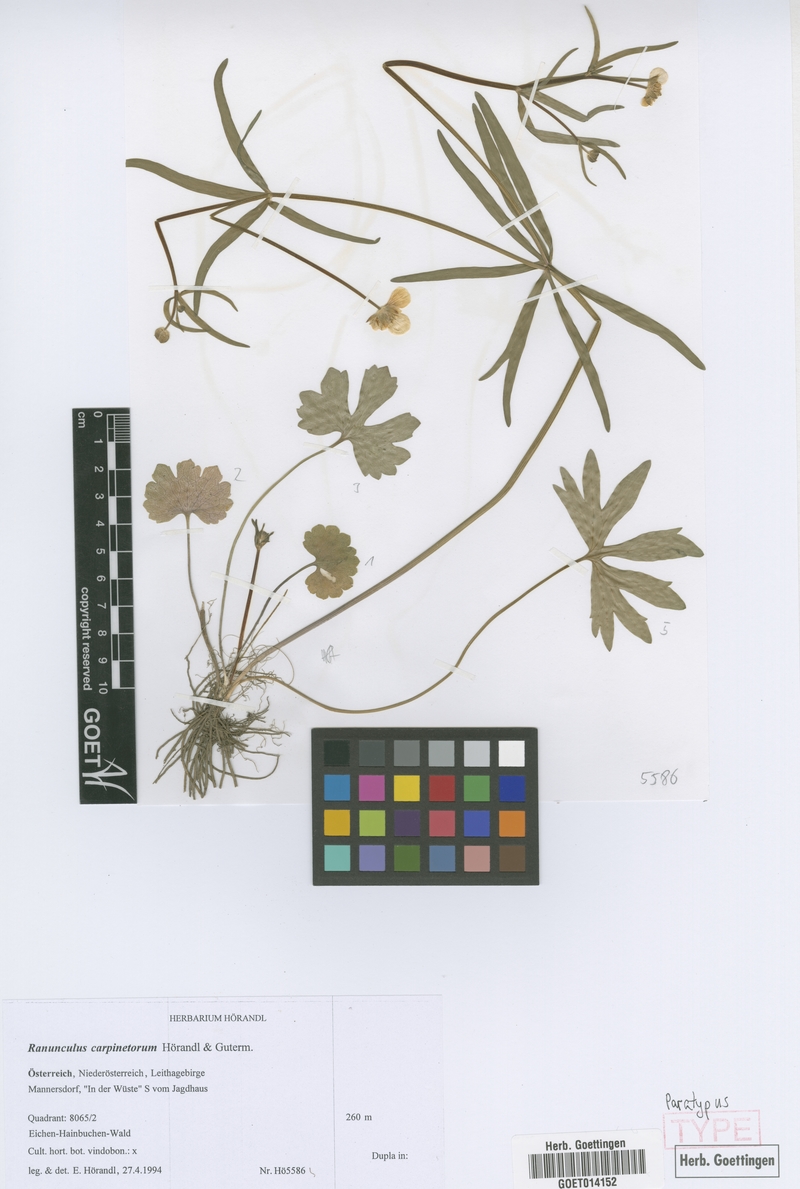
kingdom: Plantae
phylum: Tracheophyta
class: Magnoliopsida
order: Ranunculales
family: Ranunculaceae
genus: Ranunculus
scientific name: Ranunculus carpinetorum
